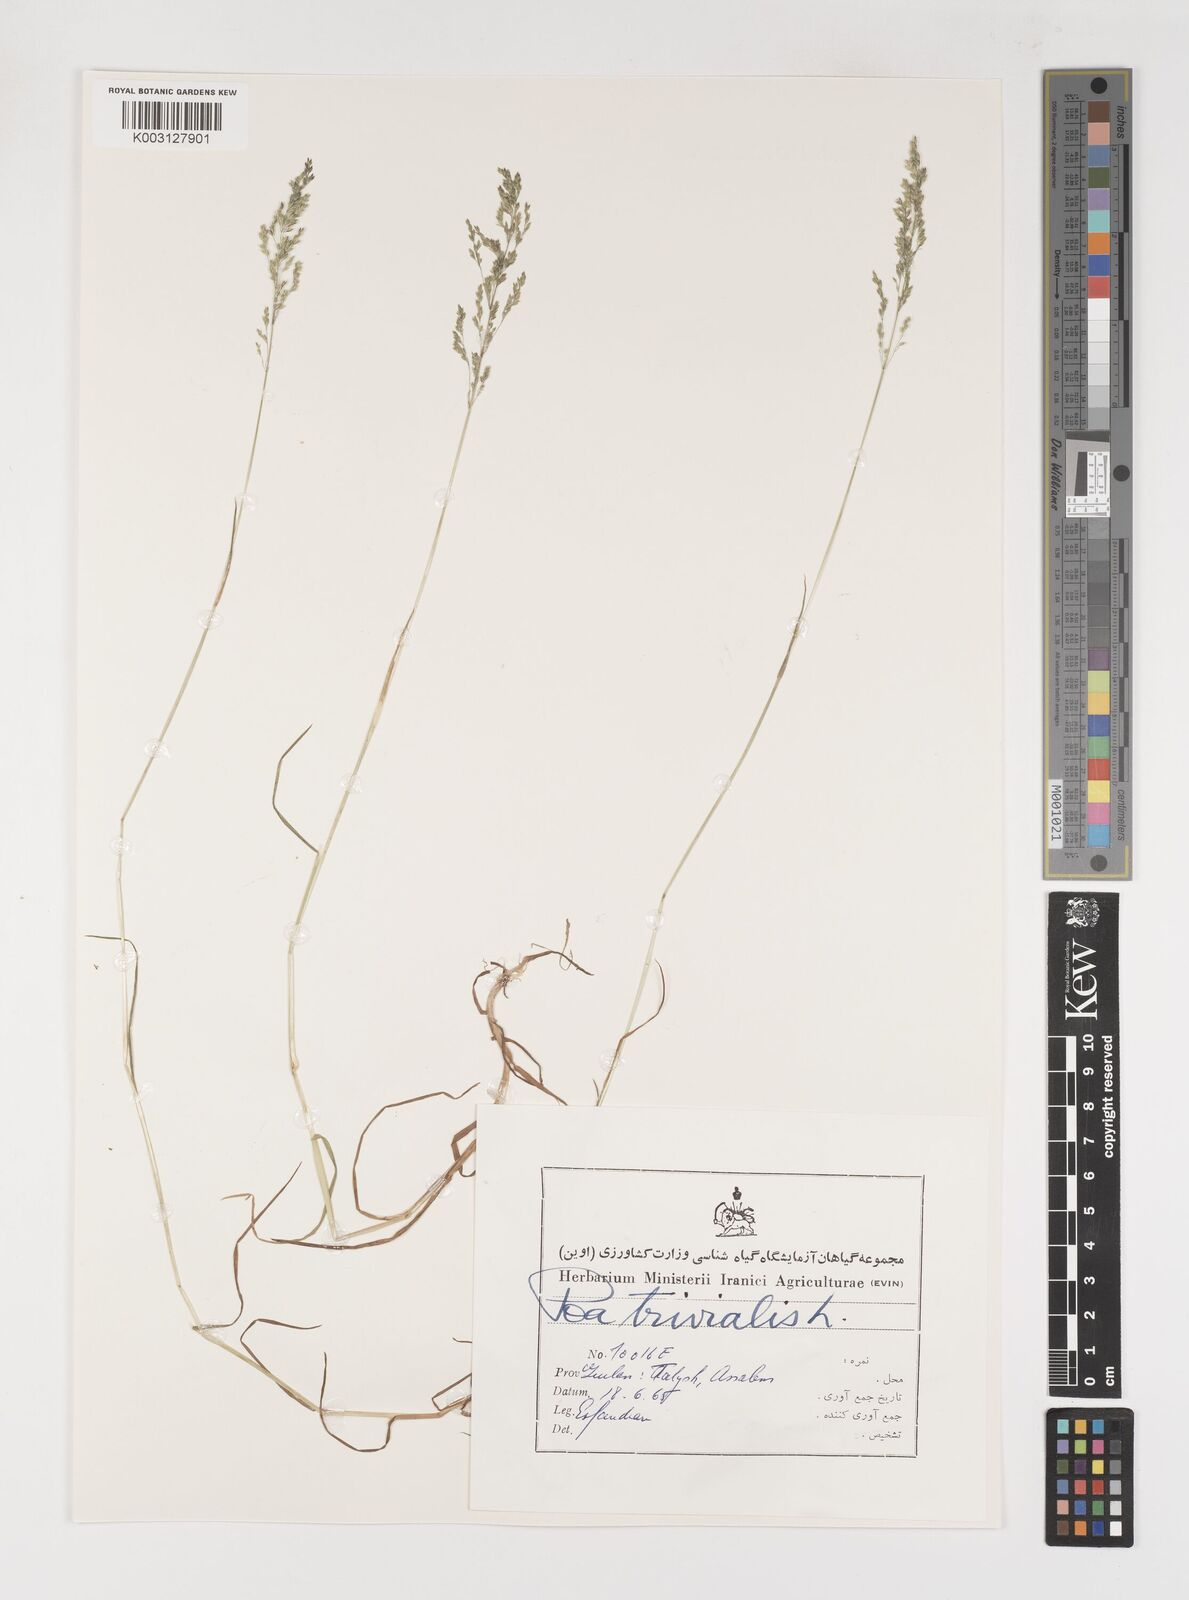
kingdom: Plantae
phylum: Tracheophyta
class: Liliopsida
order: Poales
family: Poaceae
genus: Poa
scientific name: Poa trivialis
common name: Rough bluegrass
